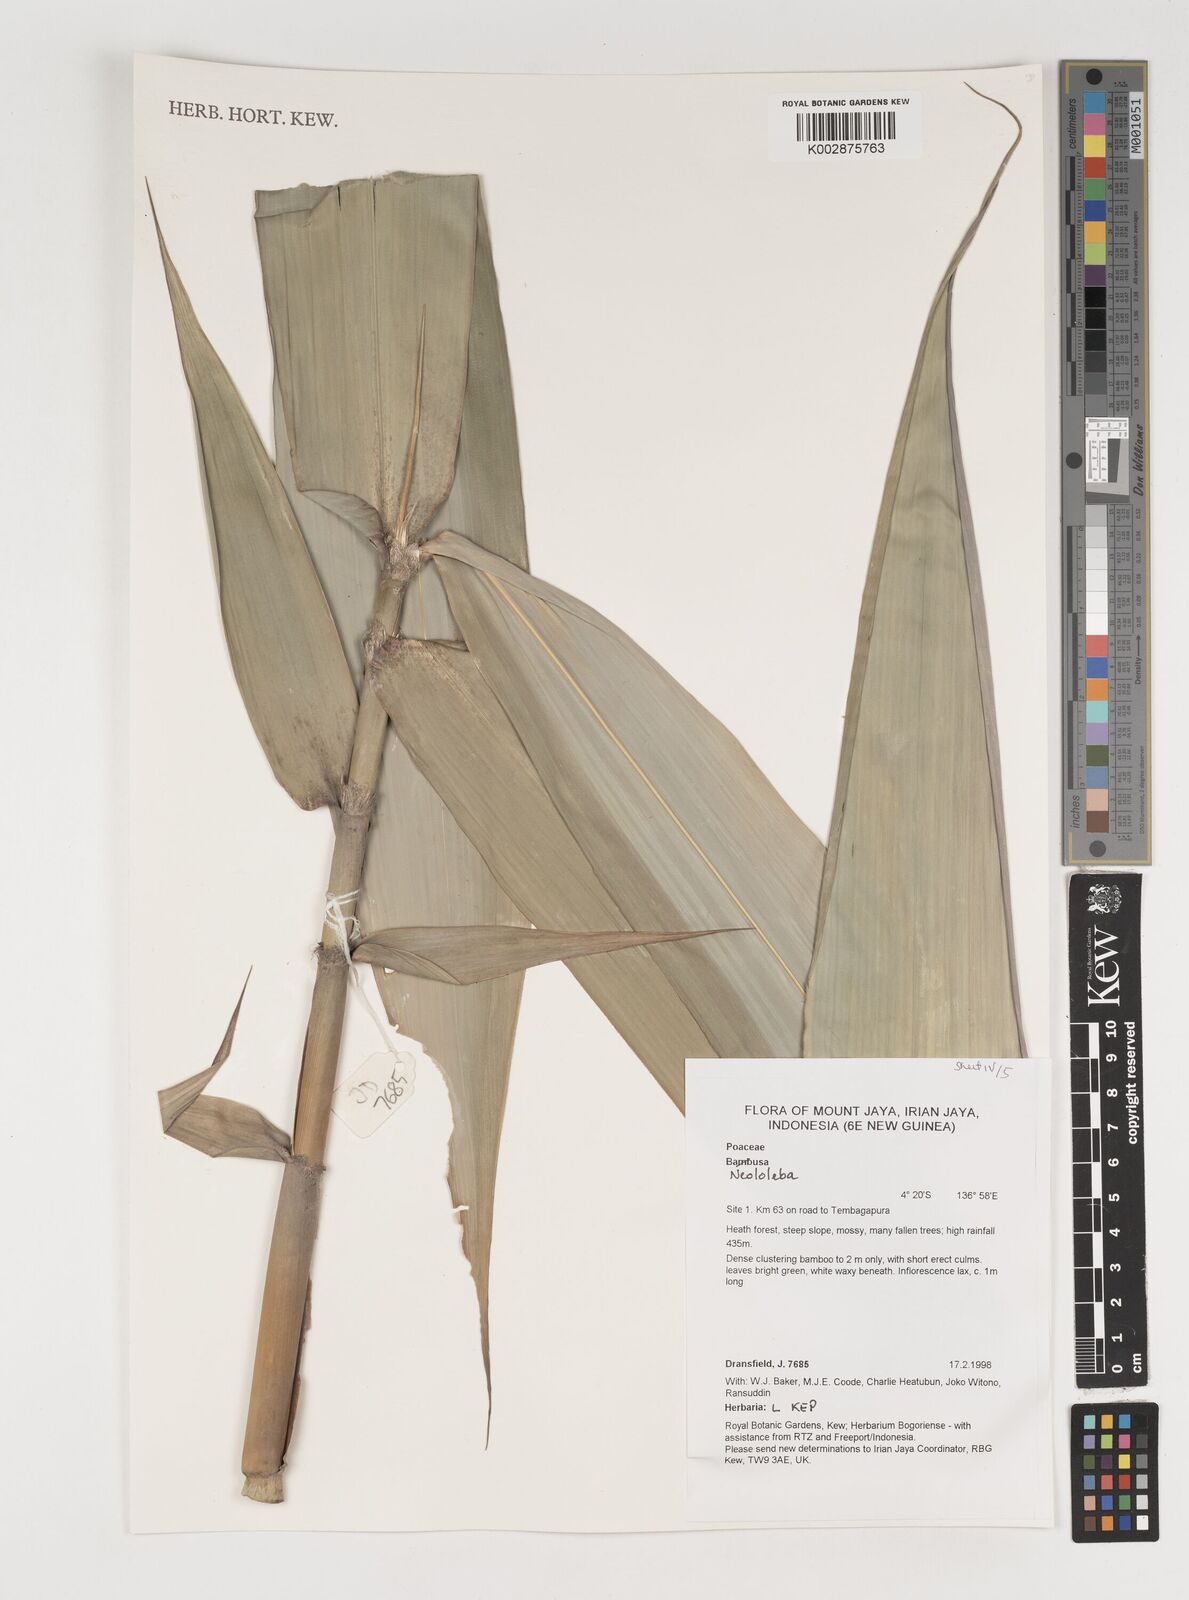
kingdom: Plantae
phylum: Tracheophyta
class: Liliopsida
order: Poales
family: Poaceae
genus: Neololeba
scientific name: Neololeba
